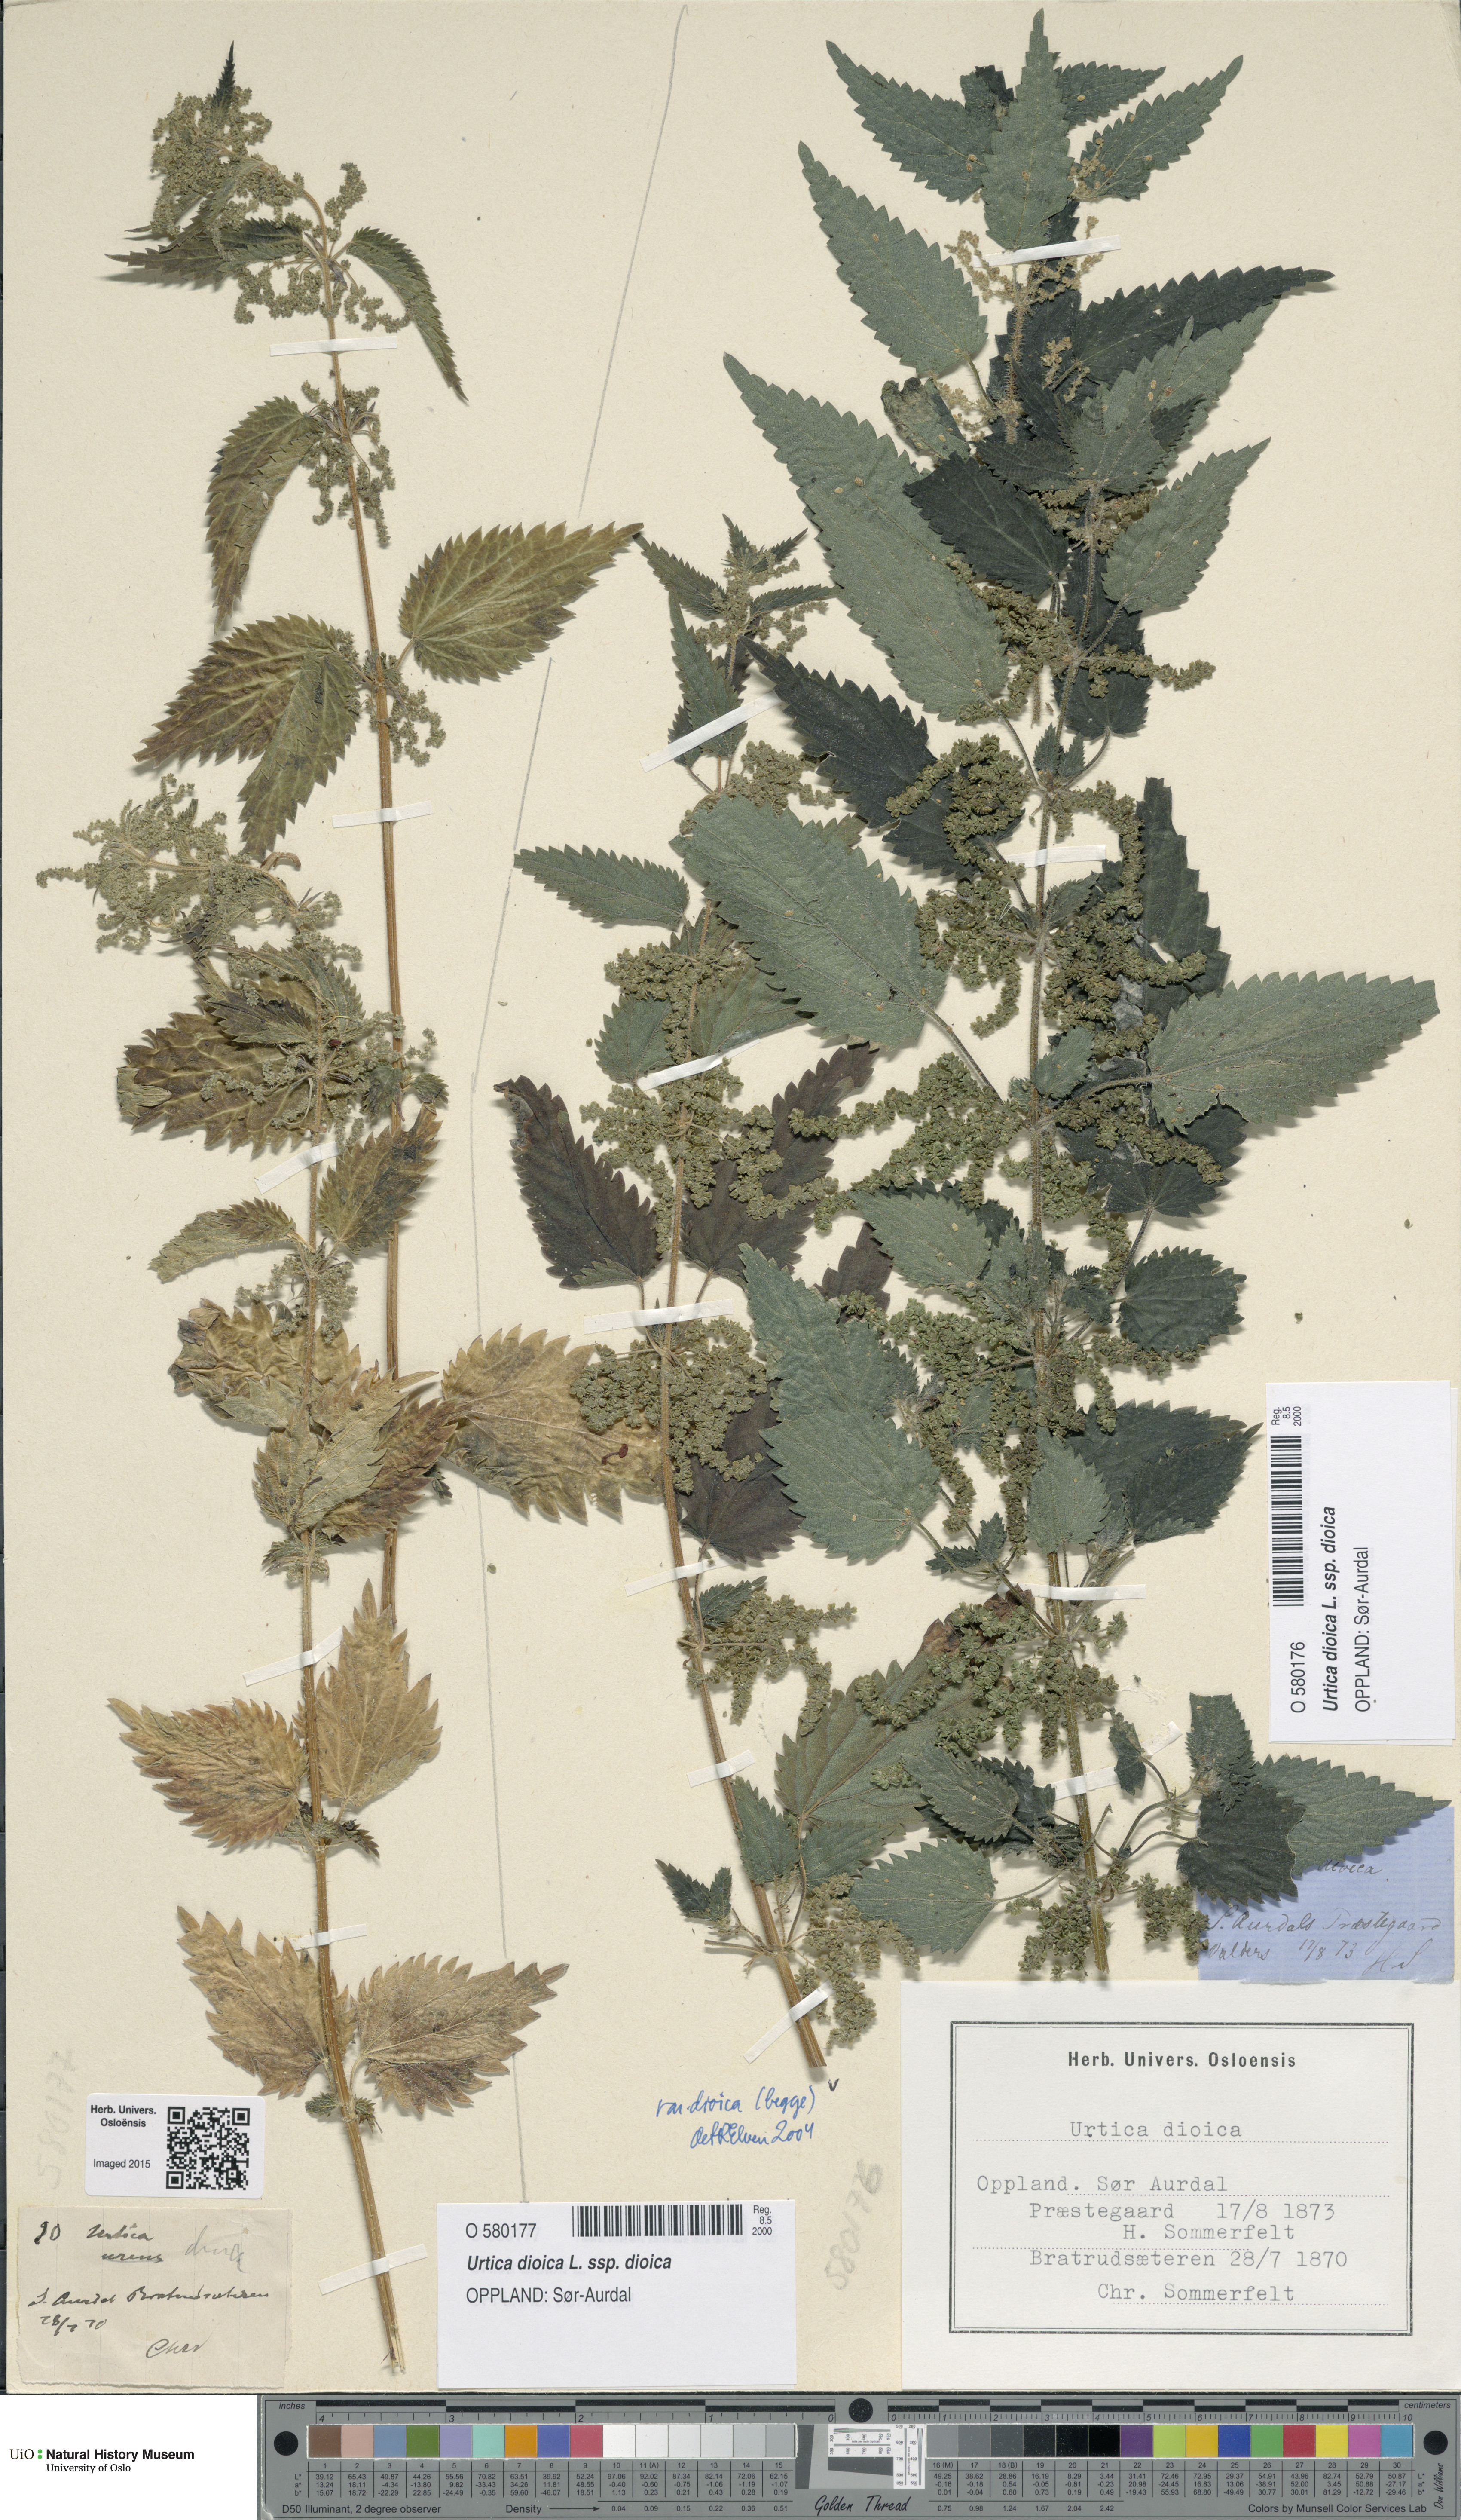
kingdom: Plantae
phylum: Tracheophyta
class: Magnoliopsida
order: Rosales
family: Urticaceae
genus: Urtica
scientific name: Urtica dioica
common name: Common nettle
